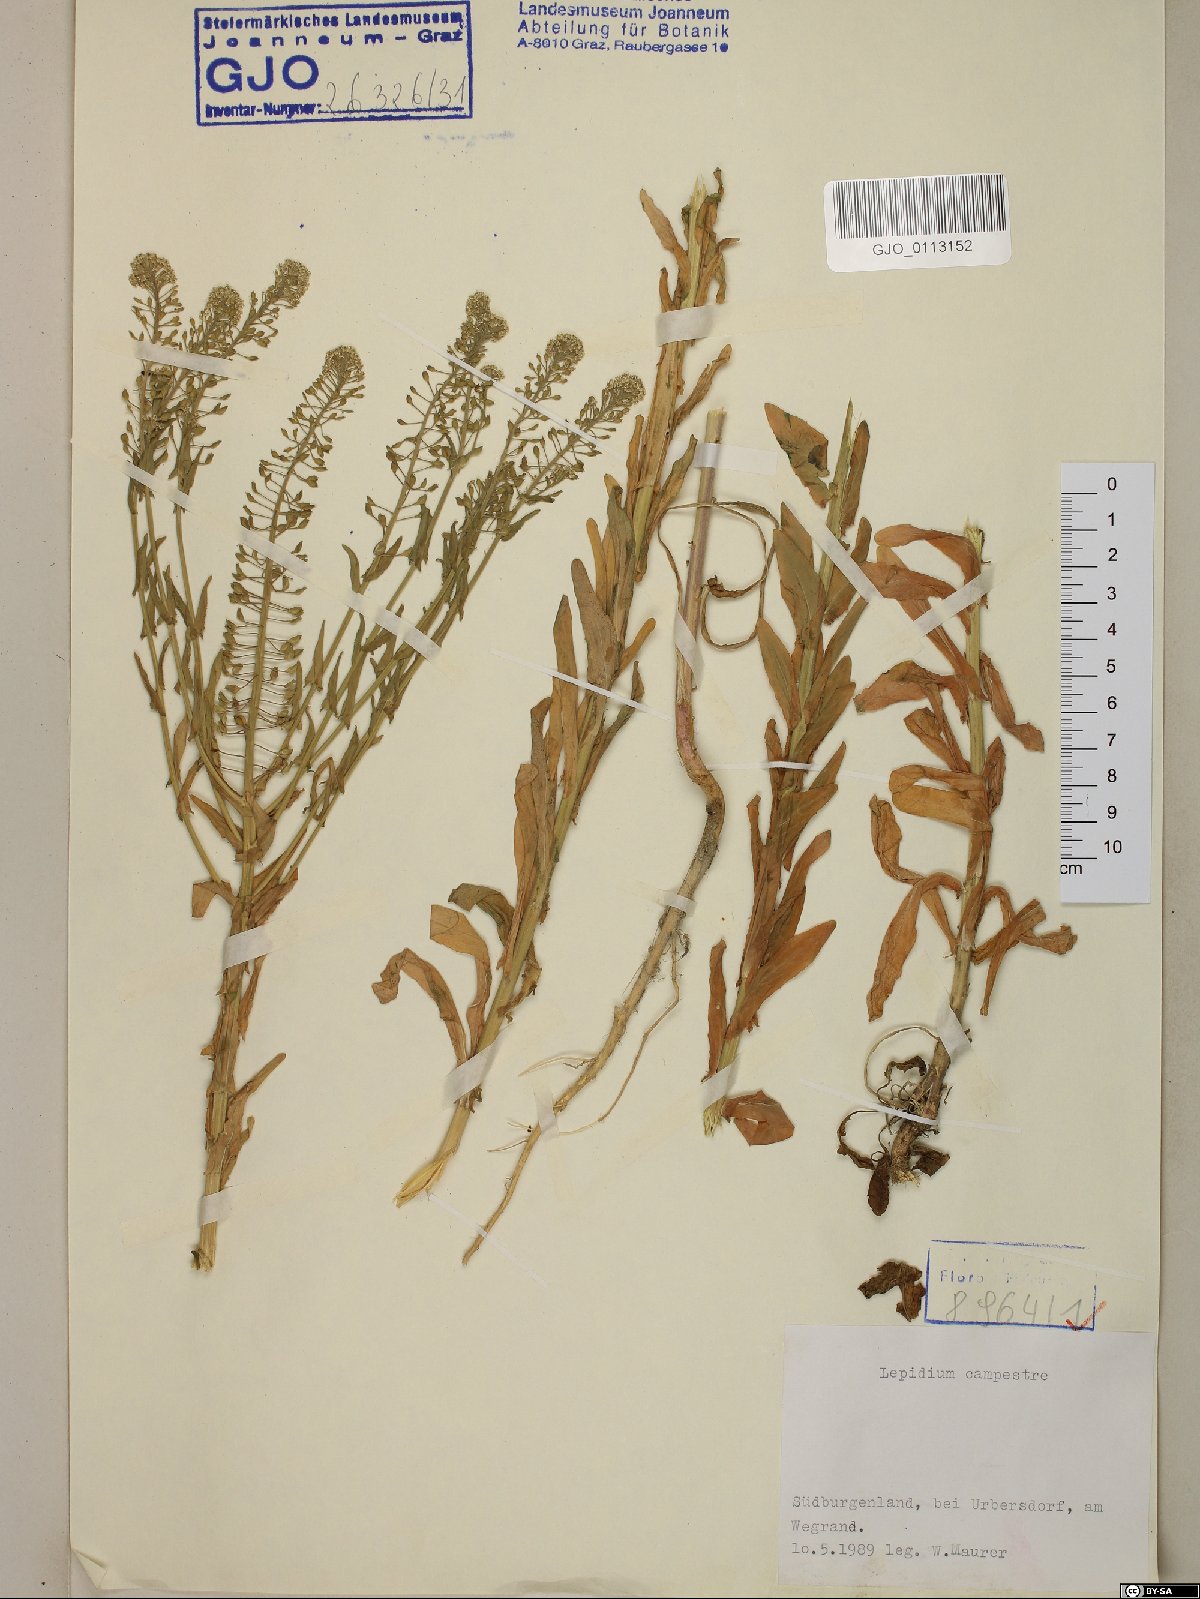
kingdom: Plantae
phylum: Tracheophyta
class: Magnoliopsida
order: Brassicales
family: Brassicaceae
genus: Lepidium
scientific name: Lepidium campestre
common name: Field pepperwort
